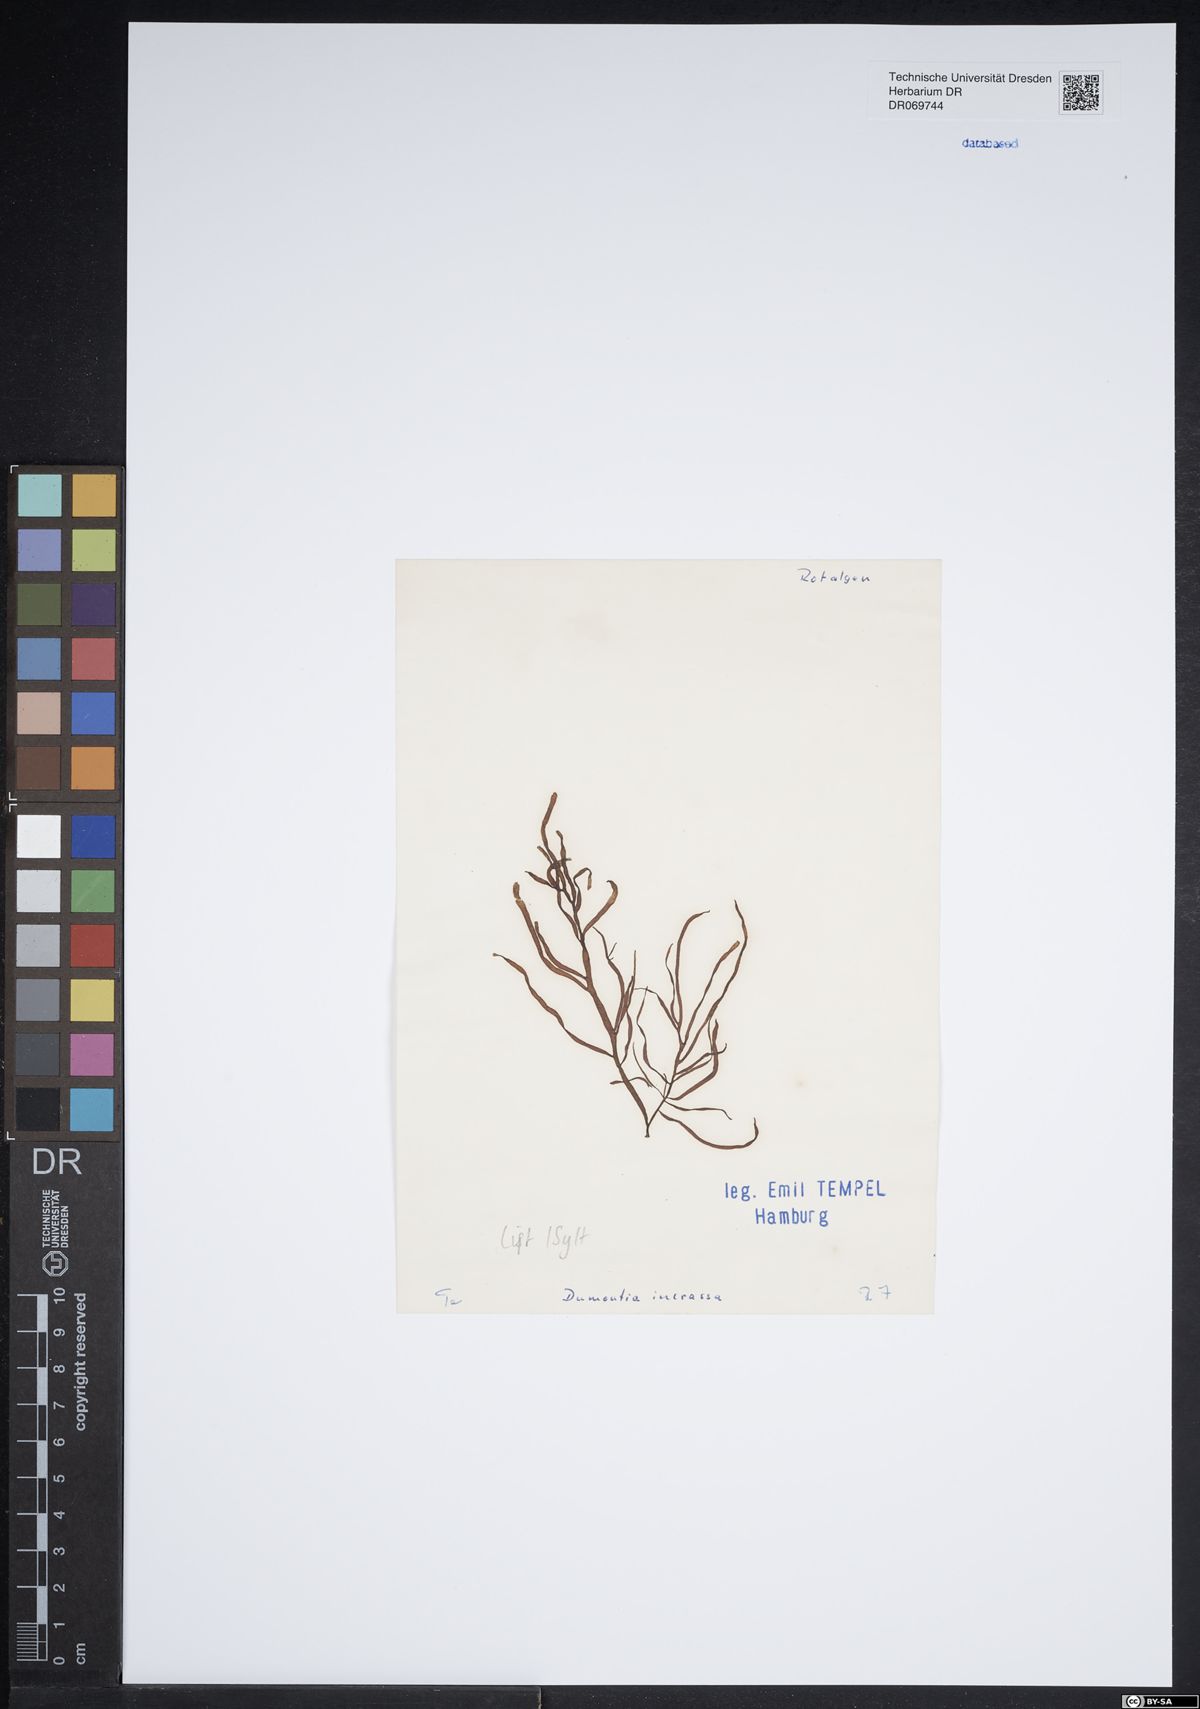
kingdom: Plantae
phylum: Rhodophyta
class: Florideophyceae
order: Gigartinales
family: Dumontiaceae
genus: Dumontia
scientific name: Dumontia contorta
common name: Worm weed
